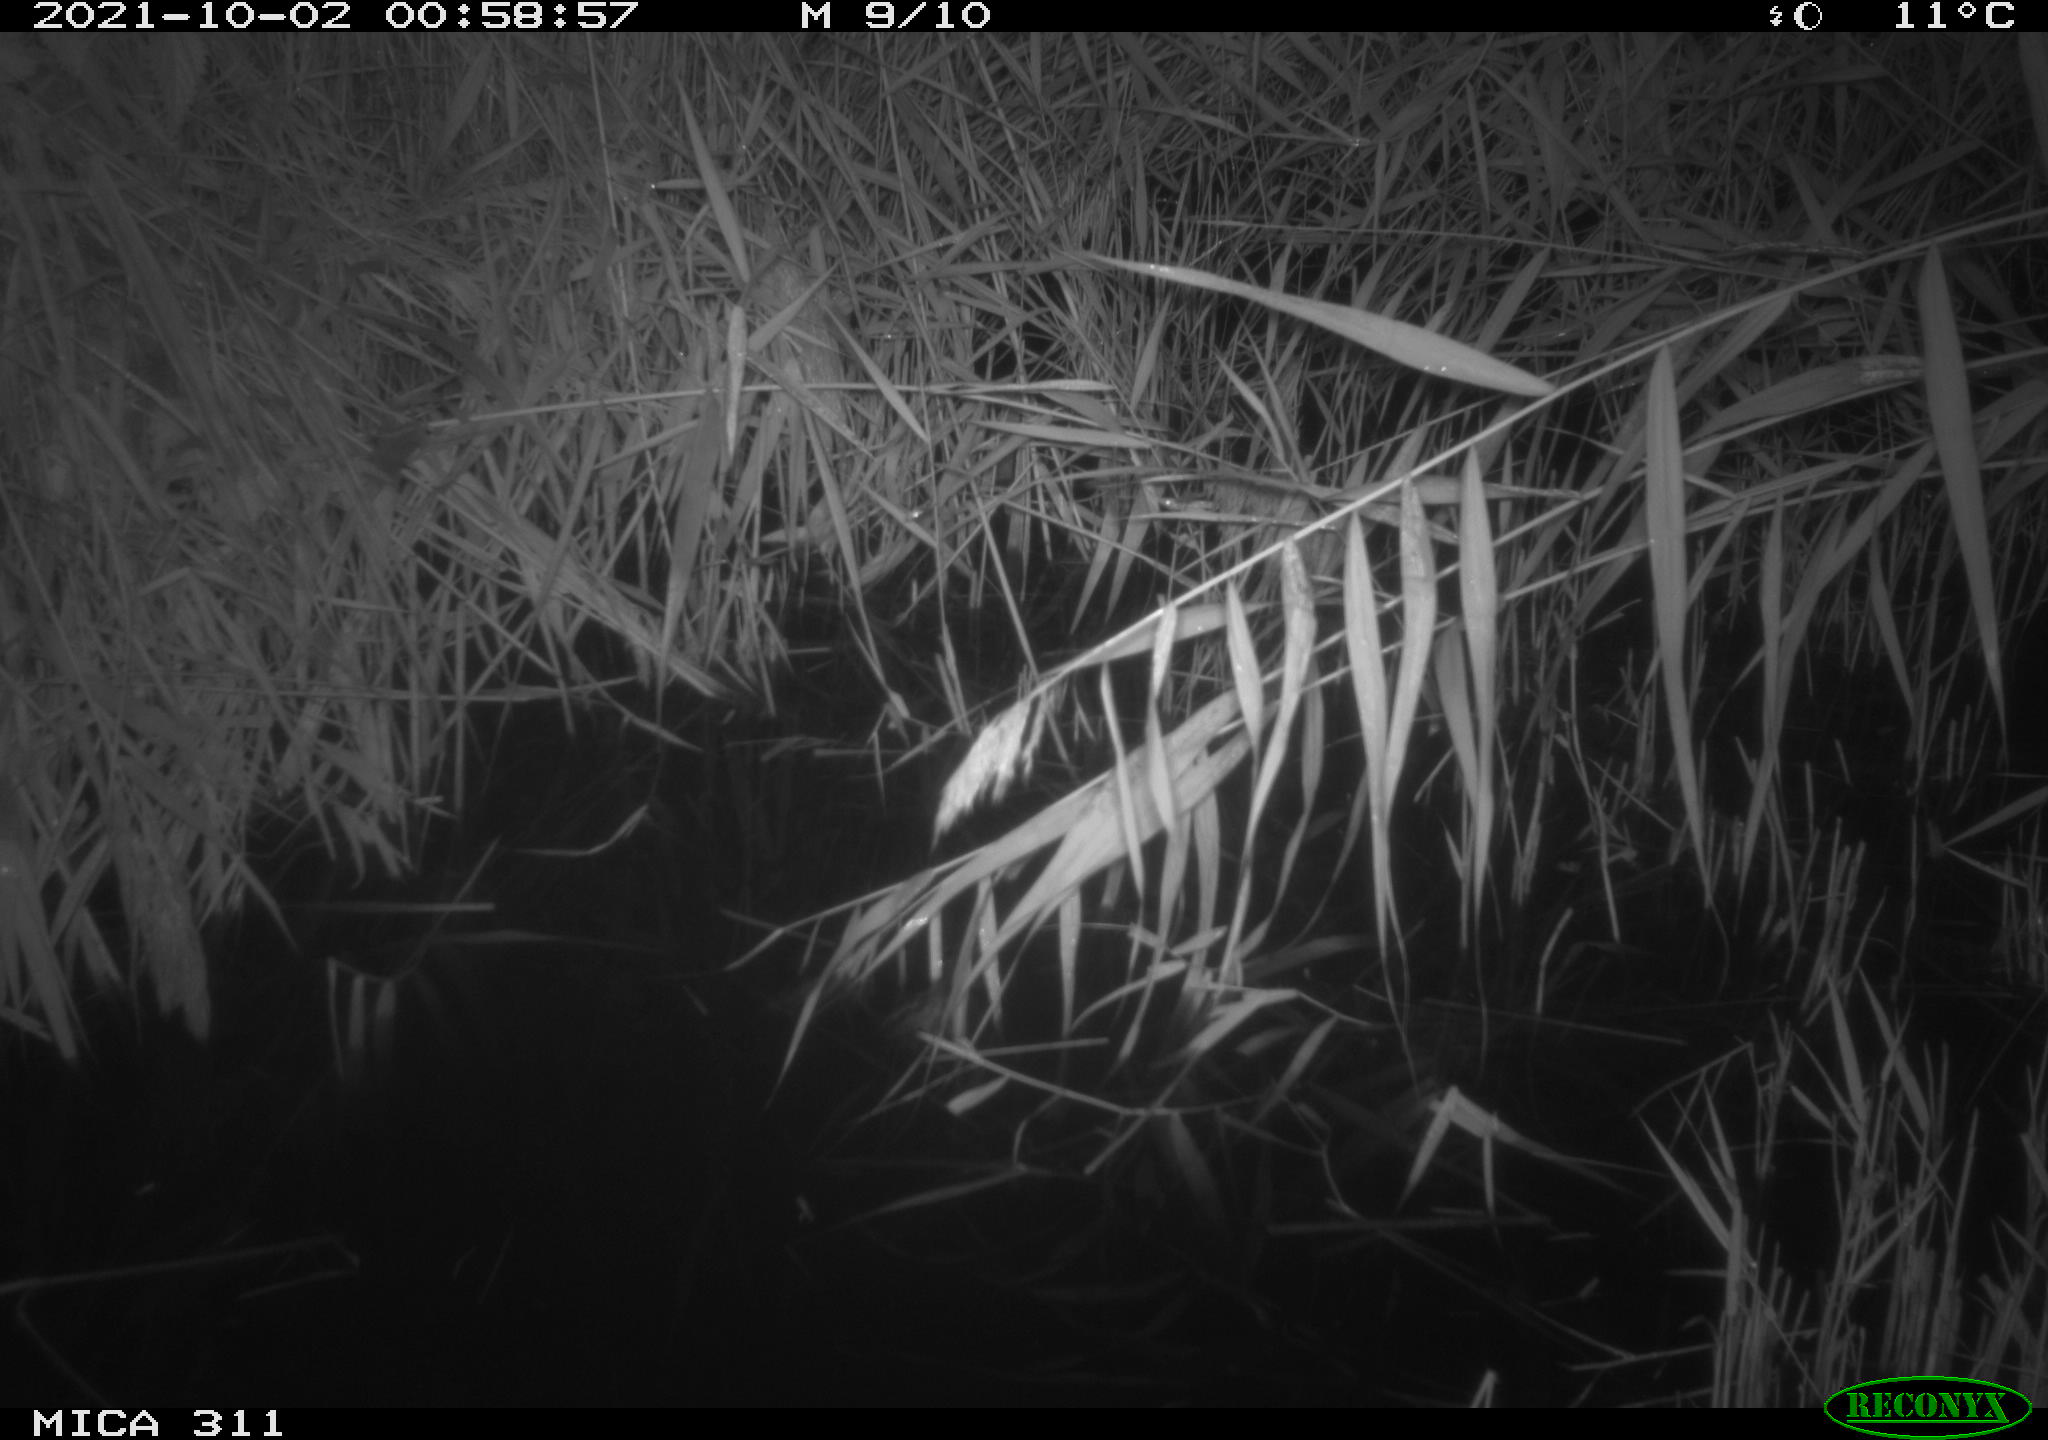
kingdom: Animalia
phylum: Chordata
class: Mammalia
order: Rodentia
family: Muridae
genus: Rattus
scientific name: Rattus norvegicus
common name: Brown rat
